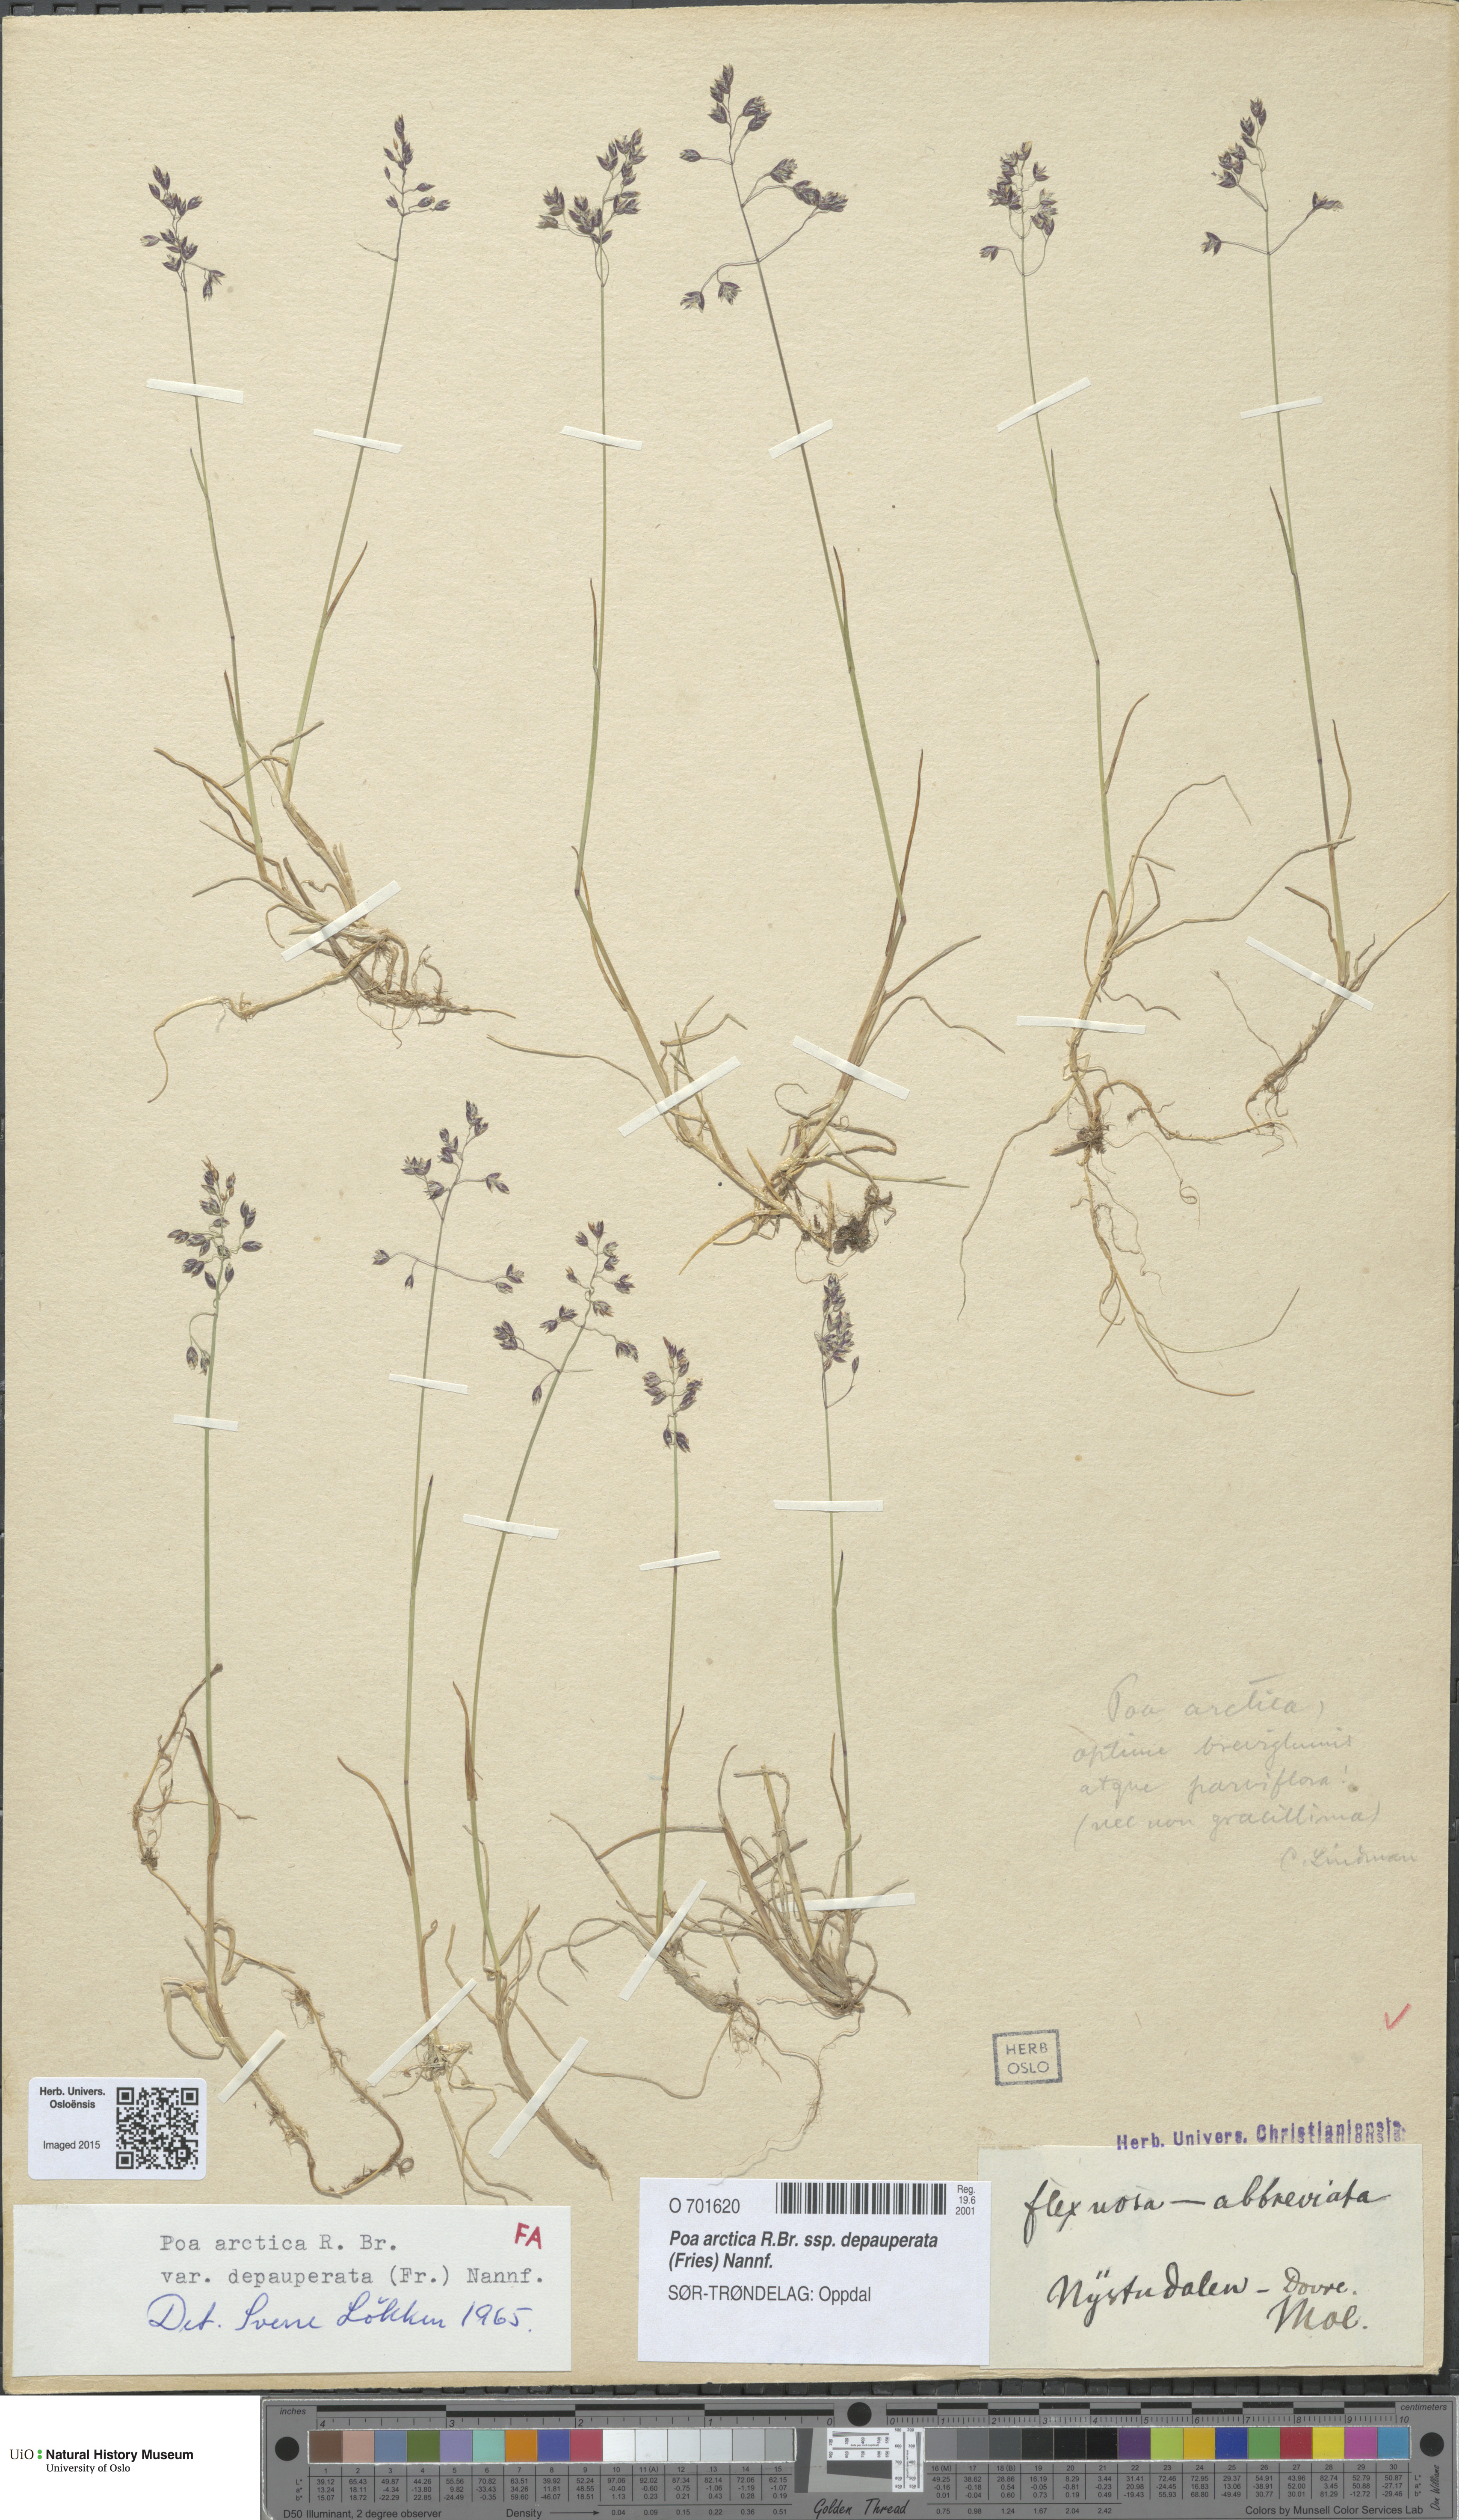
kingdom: Plantae
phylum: Tracheophyta
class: Liliopsida
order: Poales
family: Poaceae
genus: Poa
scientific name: Poa arctica
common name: Arctic bluegrass
